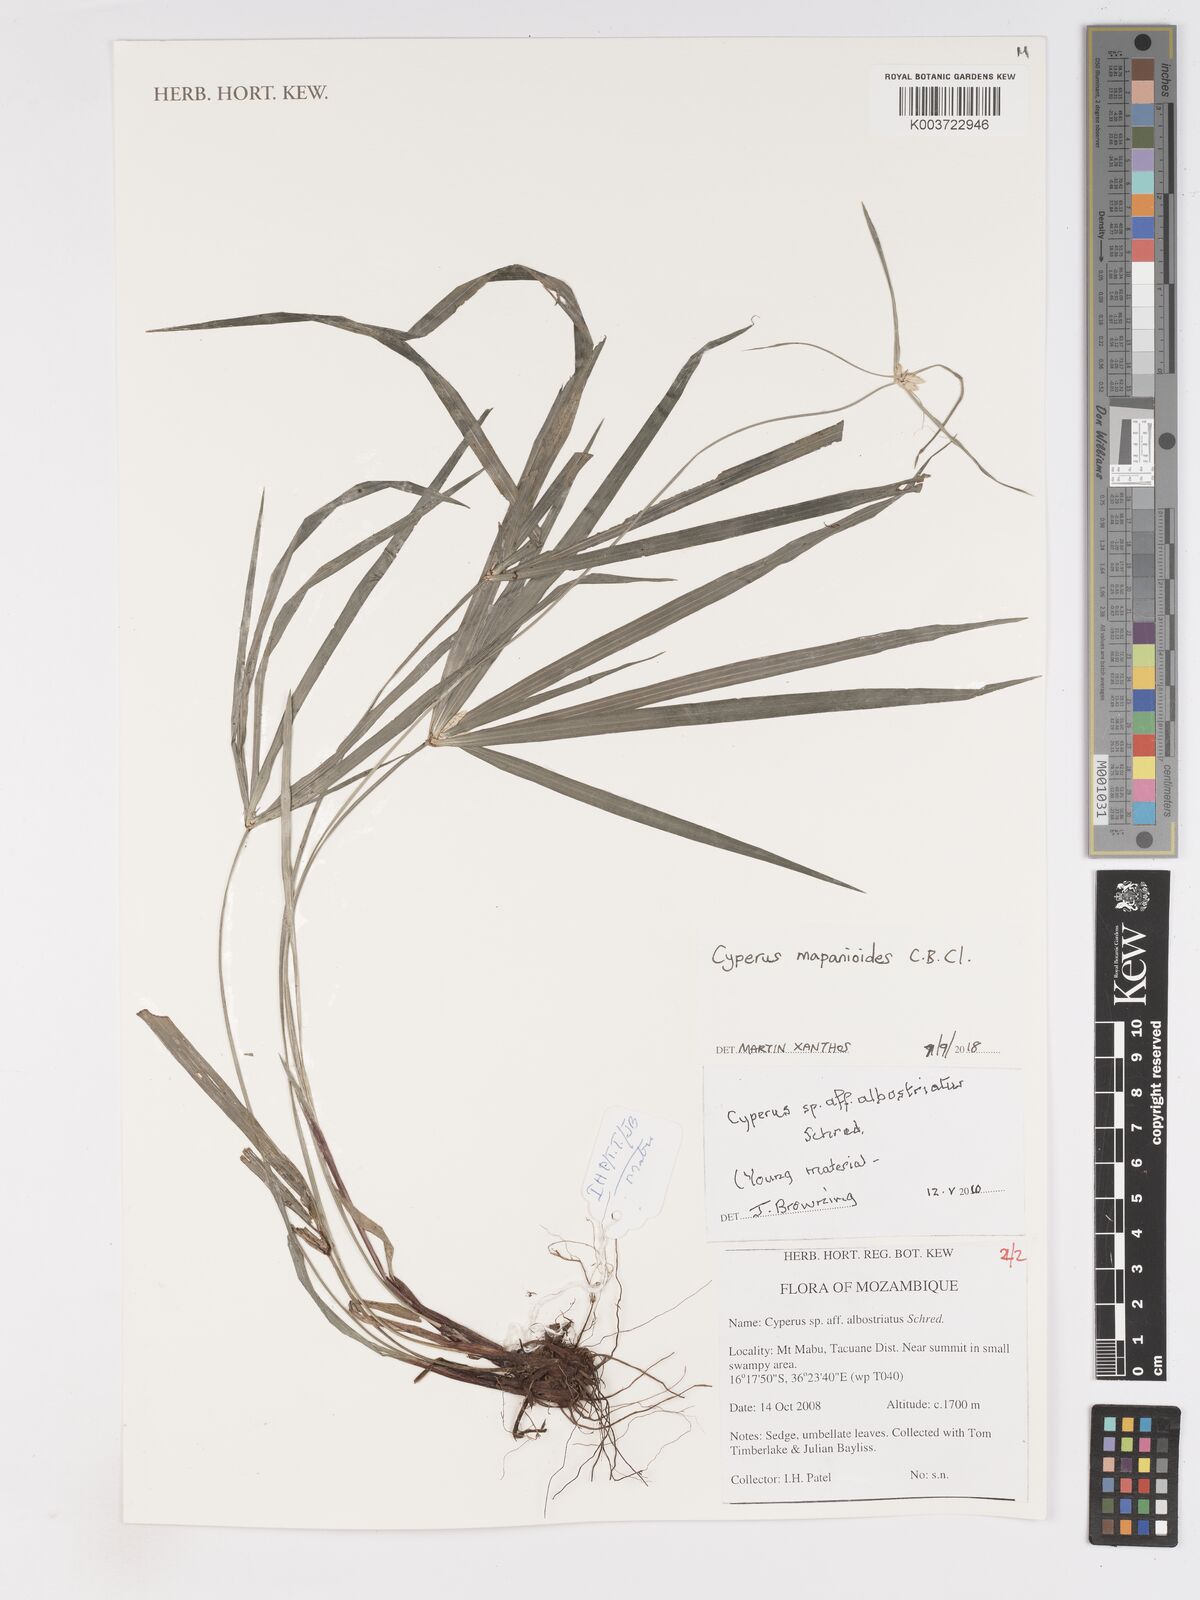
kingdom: Plantae
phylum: Tracheophyta
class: Liliopsida
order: Poales
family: Cyperaceae
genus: Cyperus
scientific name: Cyperus mapanioides
